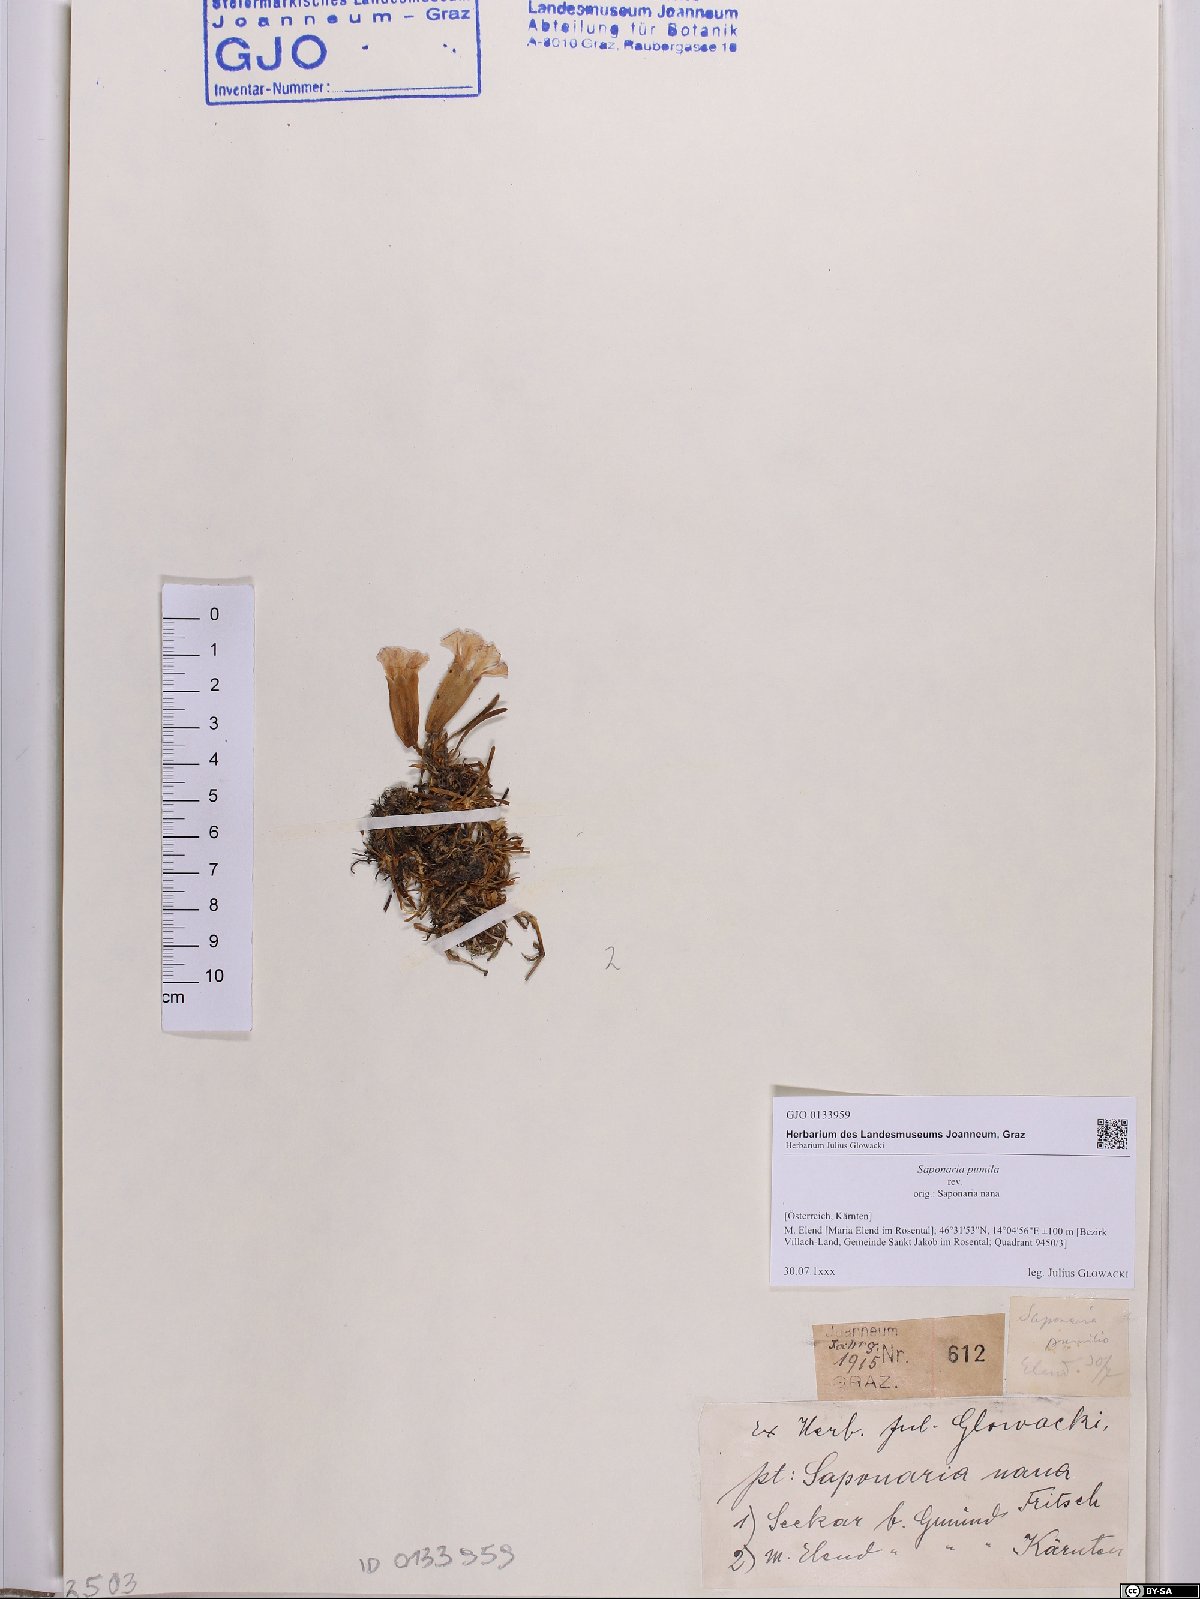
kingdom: Plantae
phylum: Tracheophyta
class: Magnoliopsida
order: Caryophyllales
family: Caryophyllaceae
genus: Saponaria
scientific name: Saponaria pumila
